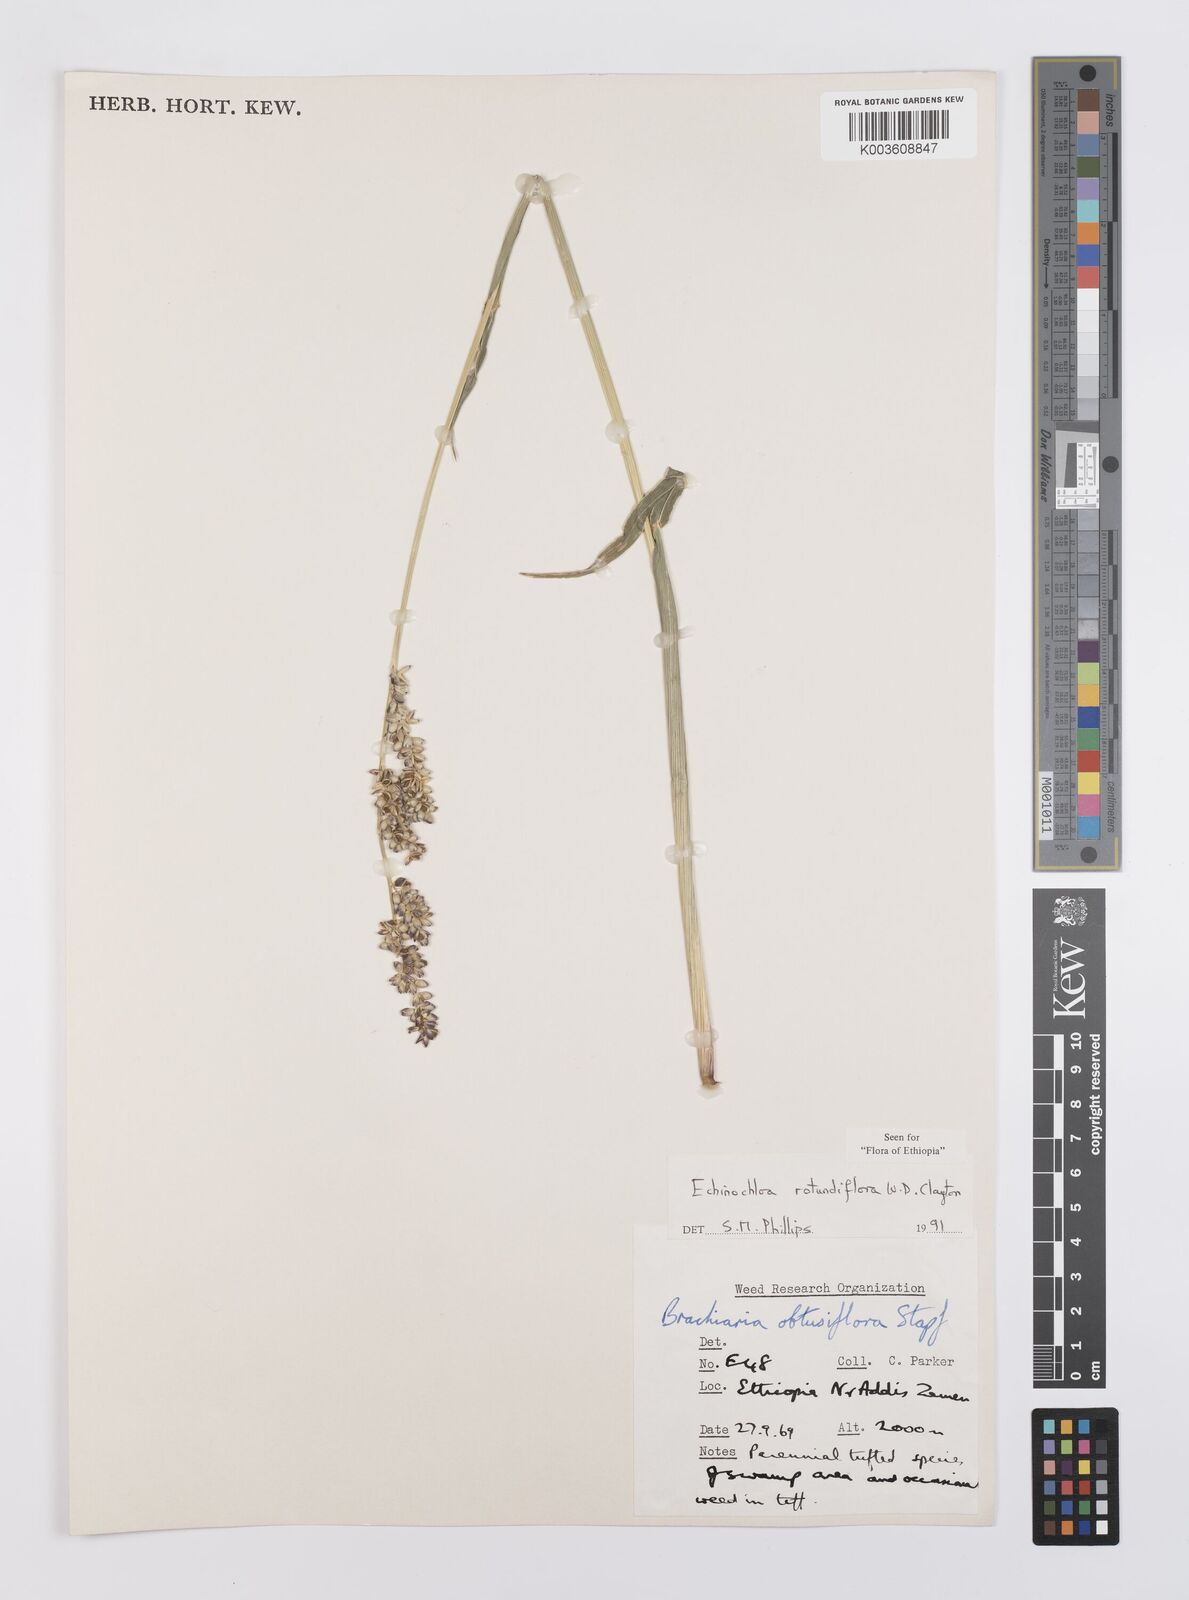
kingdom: Plantae
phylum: Tracheophyta
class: Liliopsida
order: Poales
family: Poaceae
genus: Echinochloa
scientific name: Echinochloa rotundiflora
